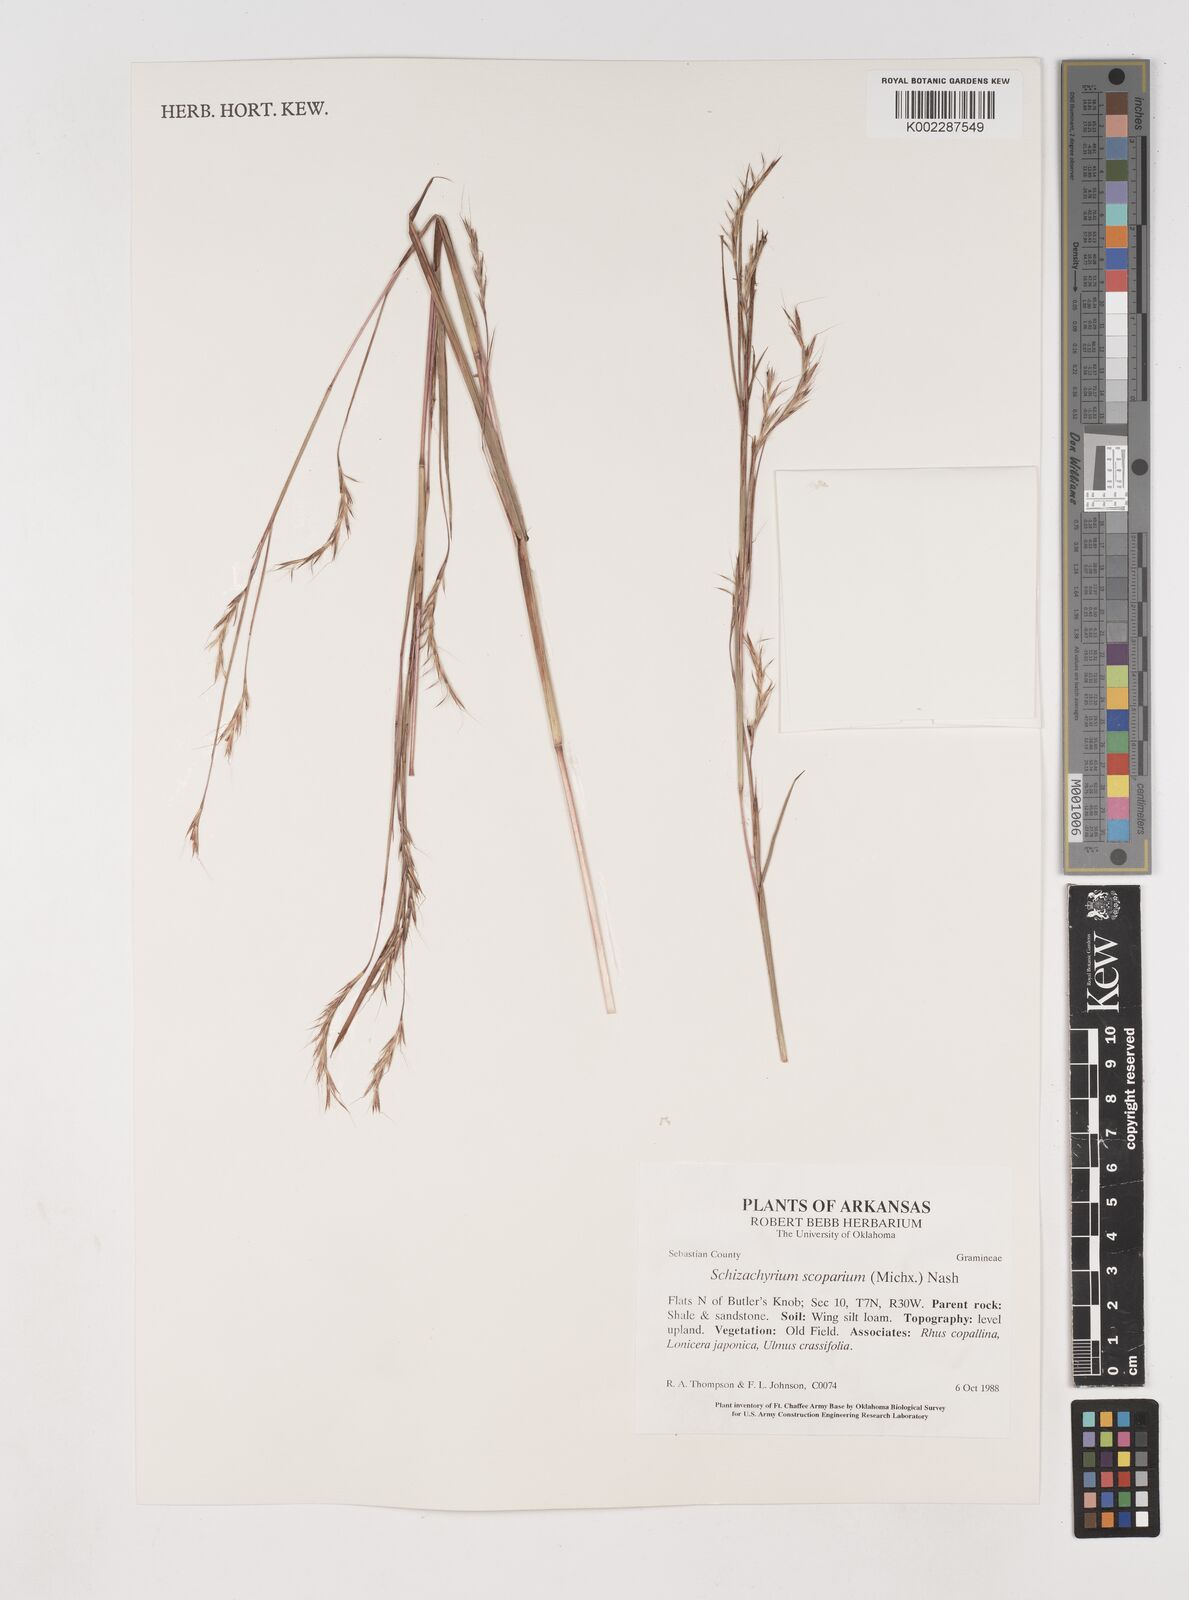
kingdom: Plantae
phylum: Tracheophyta
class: Liliopsida
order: Poales
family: Poaceae
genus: Schizachyrium
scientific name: Schizachyrium scoparium
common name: Little bluestem
